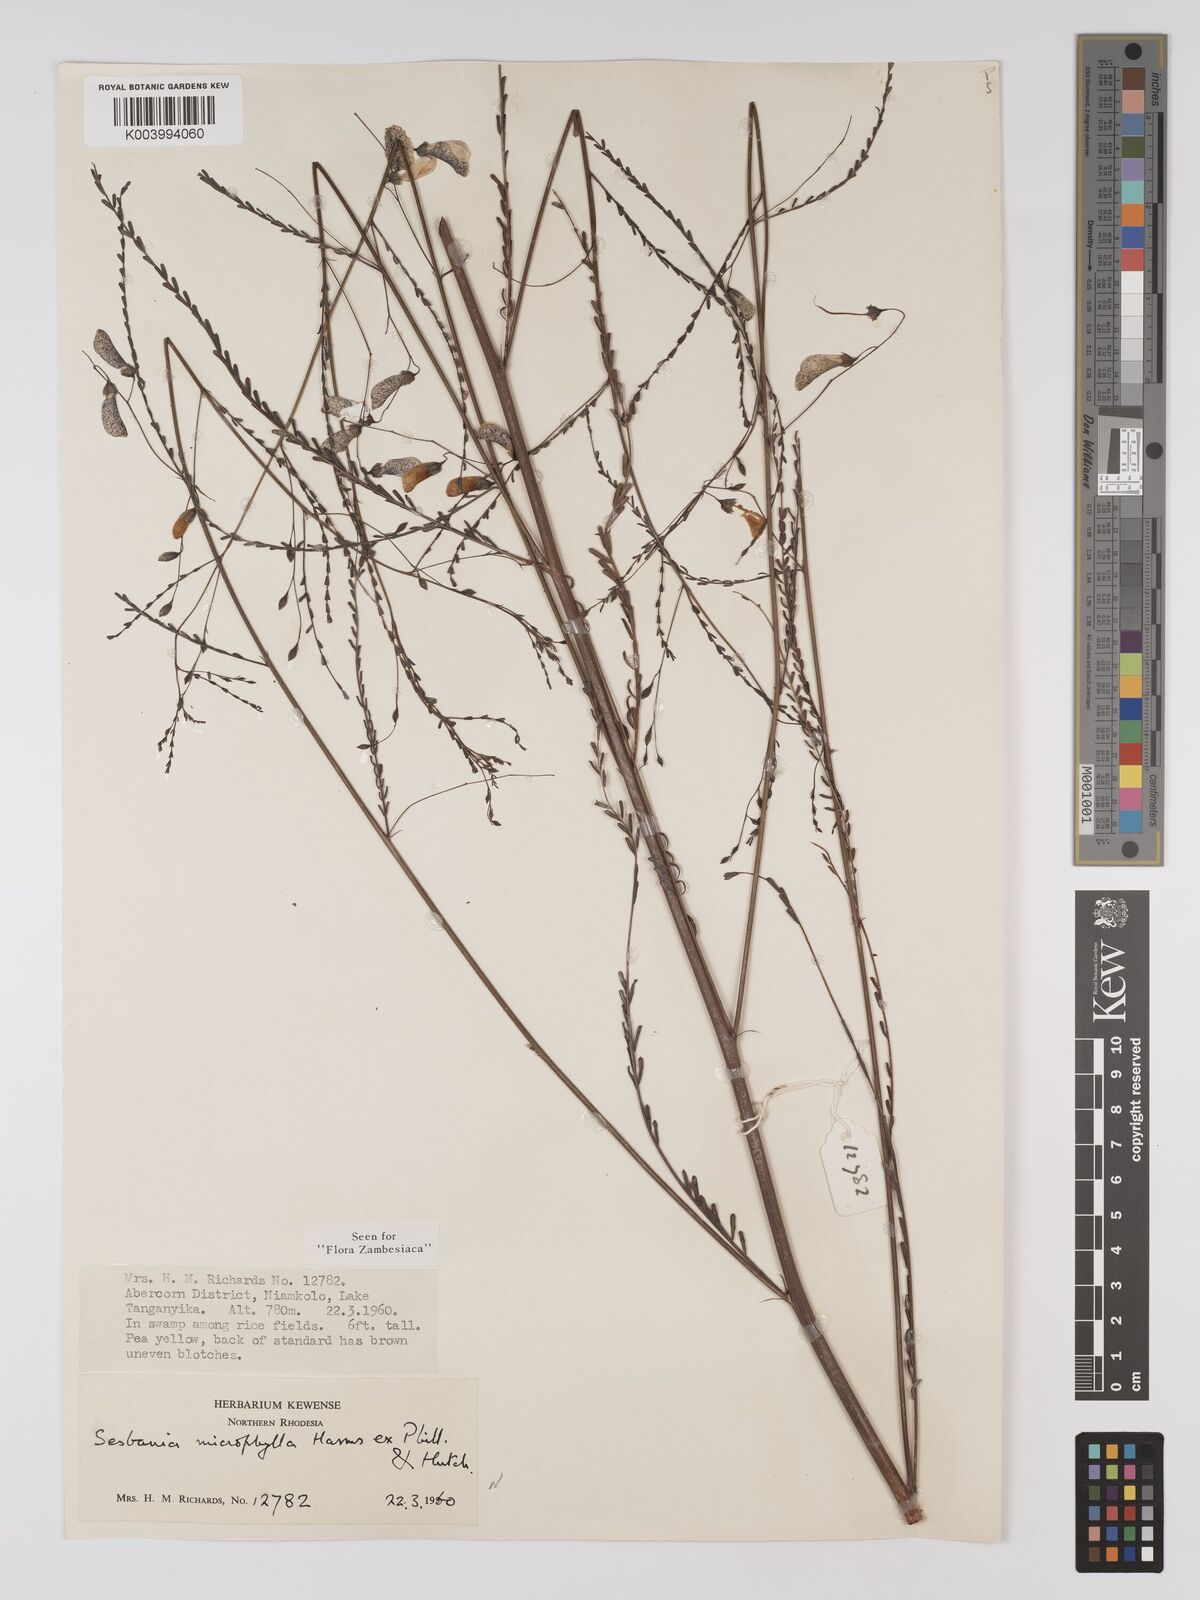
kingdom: Plantae
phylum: Tracheophyta
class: Magnoliopsida
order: Fabales
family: Fabaceae
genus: Sesbania
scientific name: Sesbania microphylla
